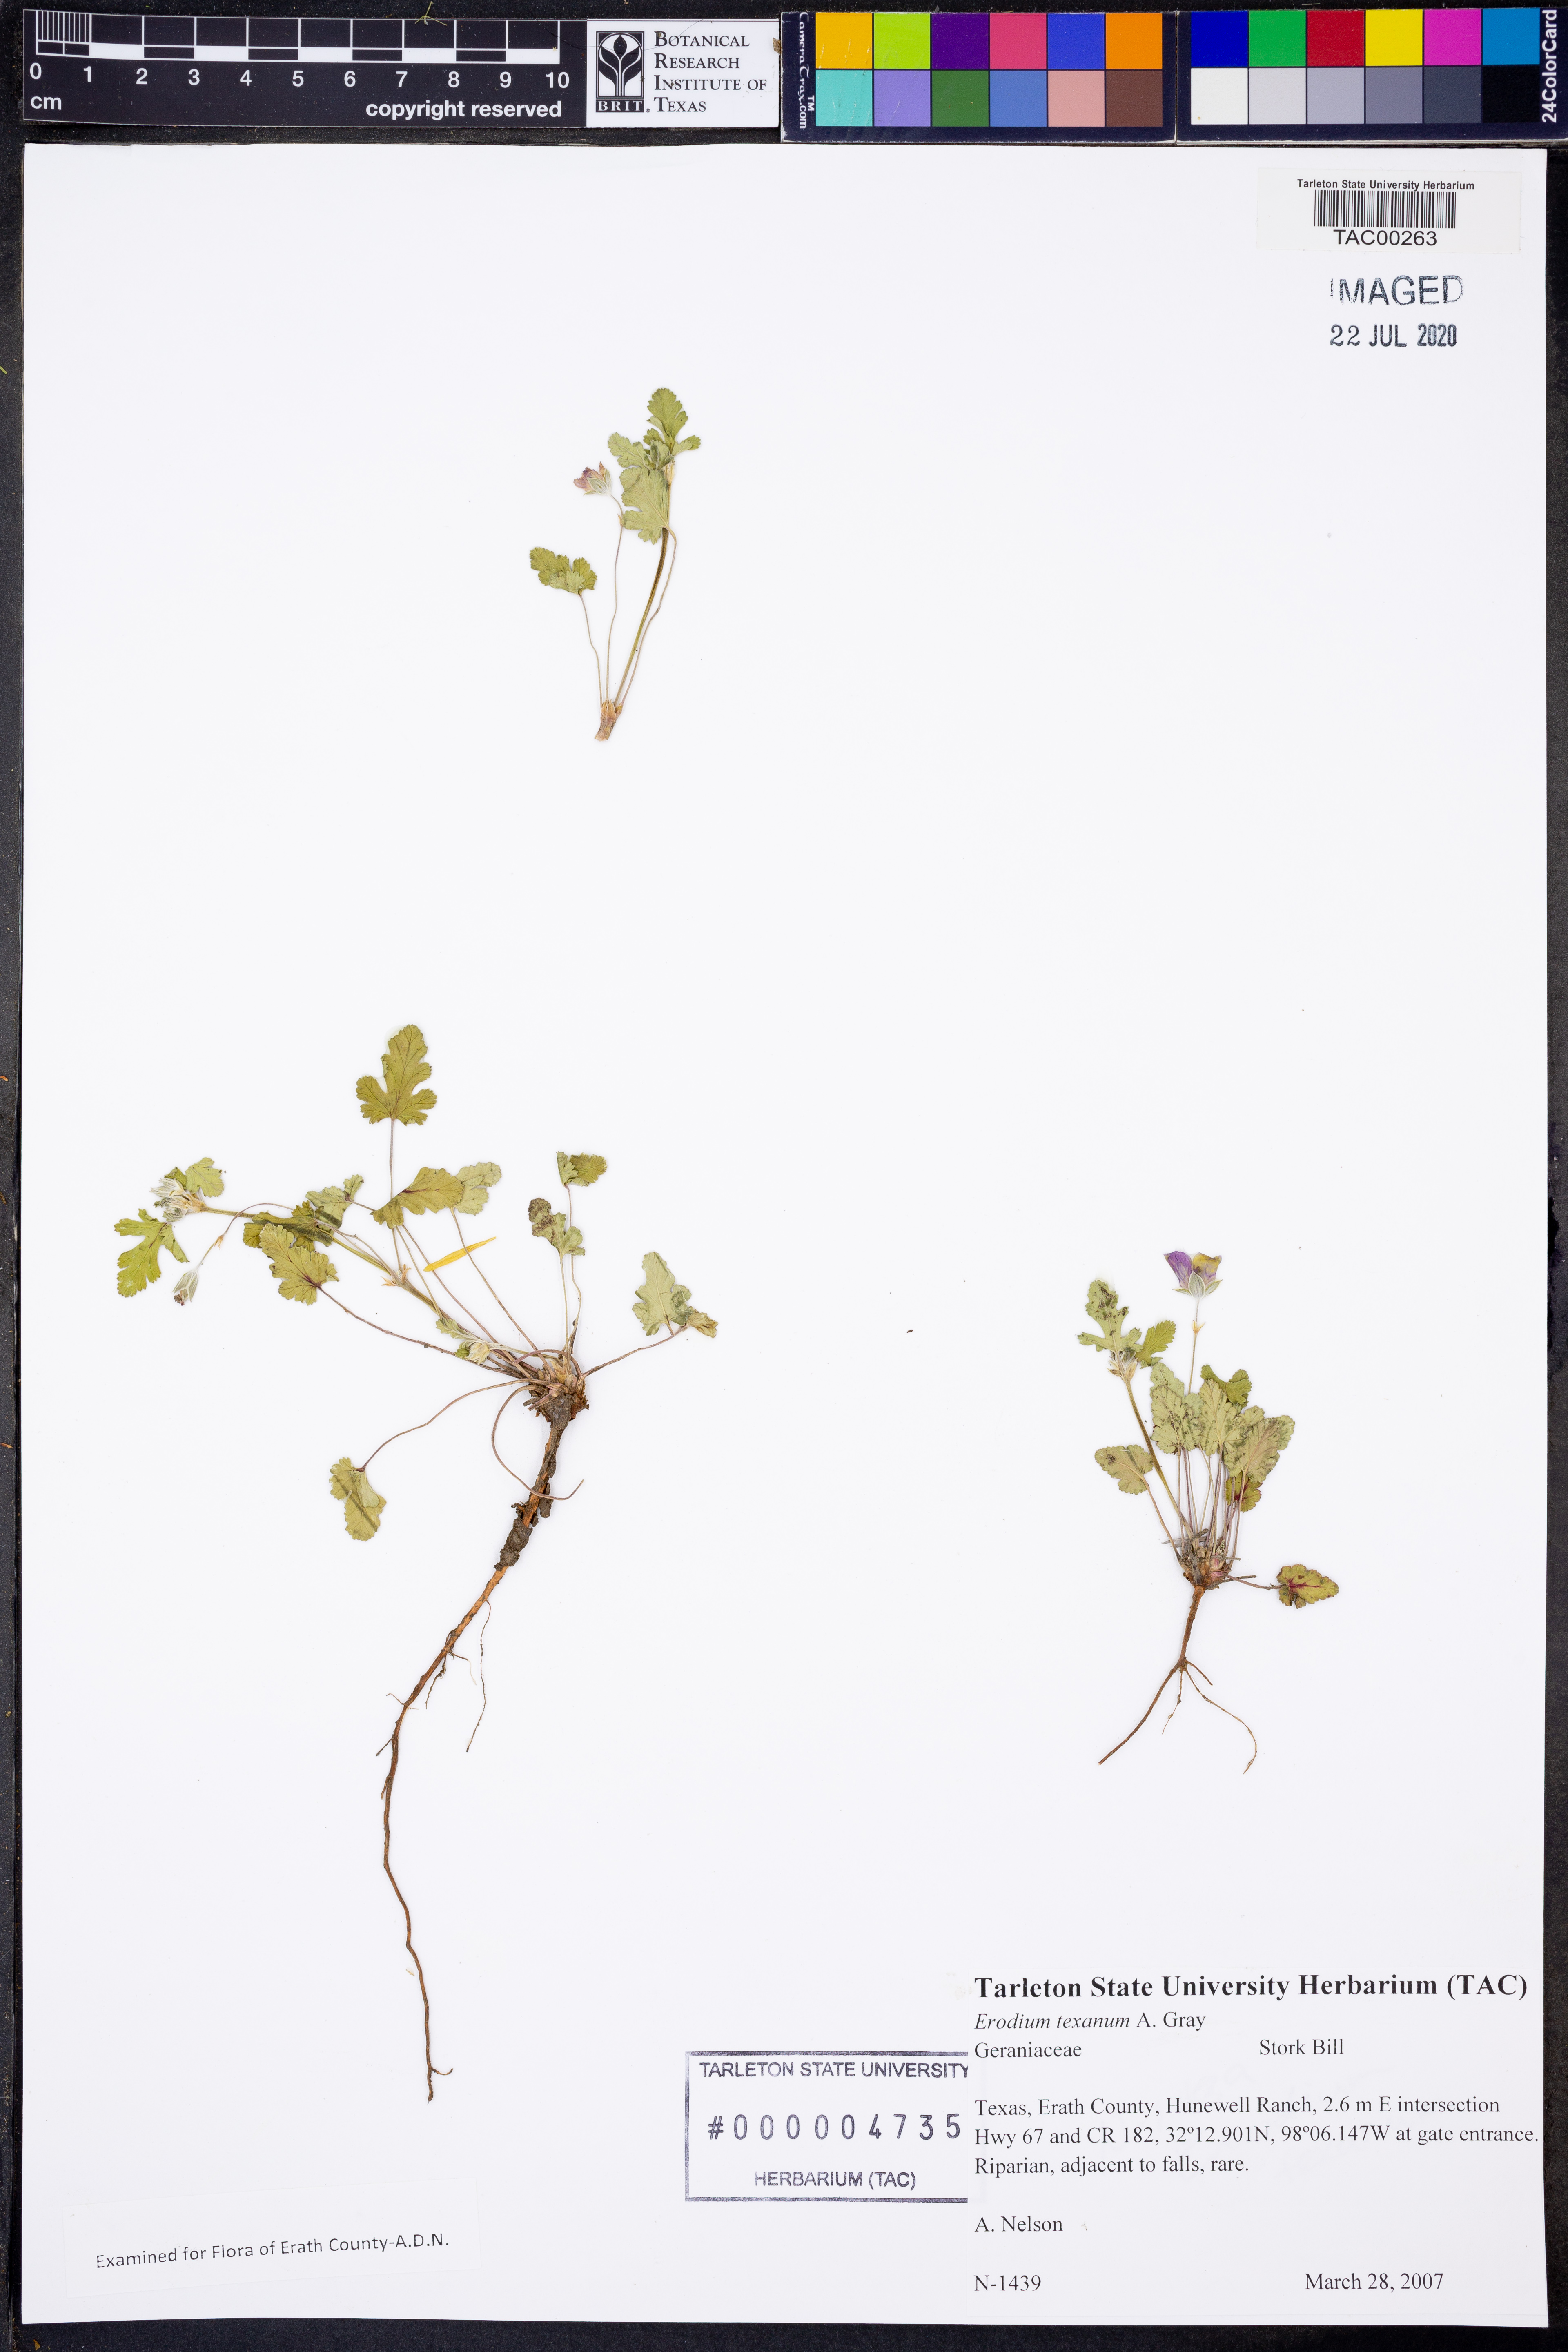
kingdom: Plantae
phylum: Tracheophyta
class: Magnoliopsida
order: Geraniales
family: Geraniaceae
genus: Erodium
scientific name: Erodium texanum
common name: Texas stork's-bill
